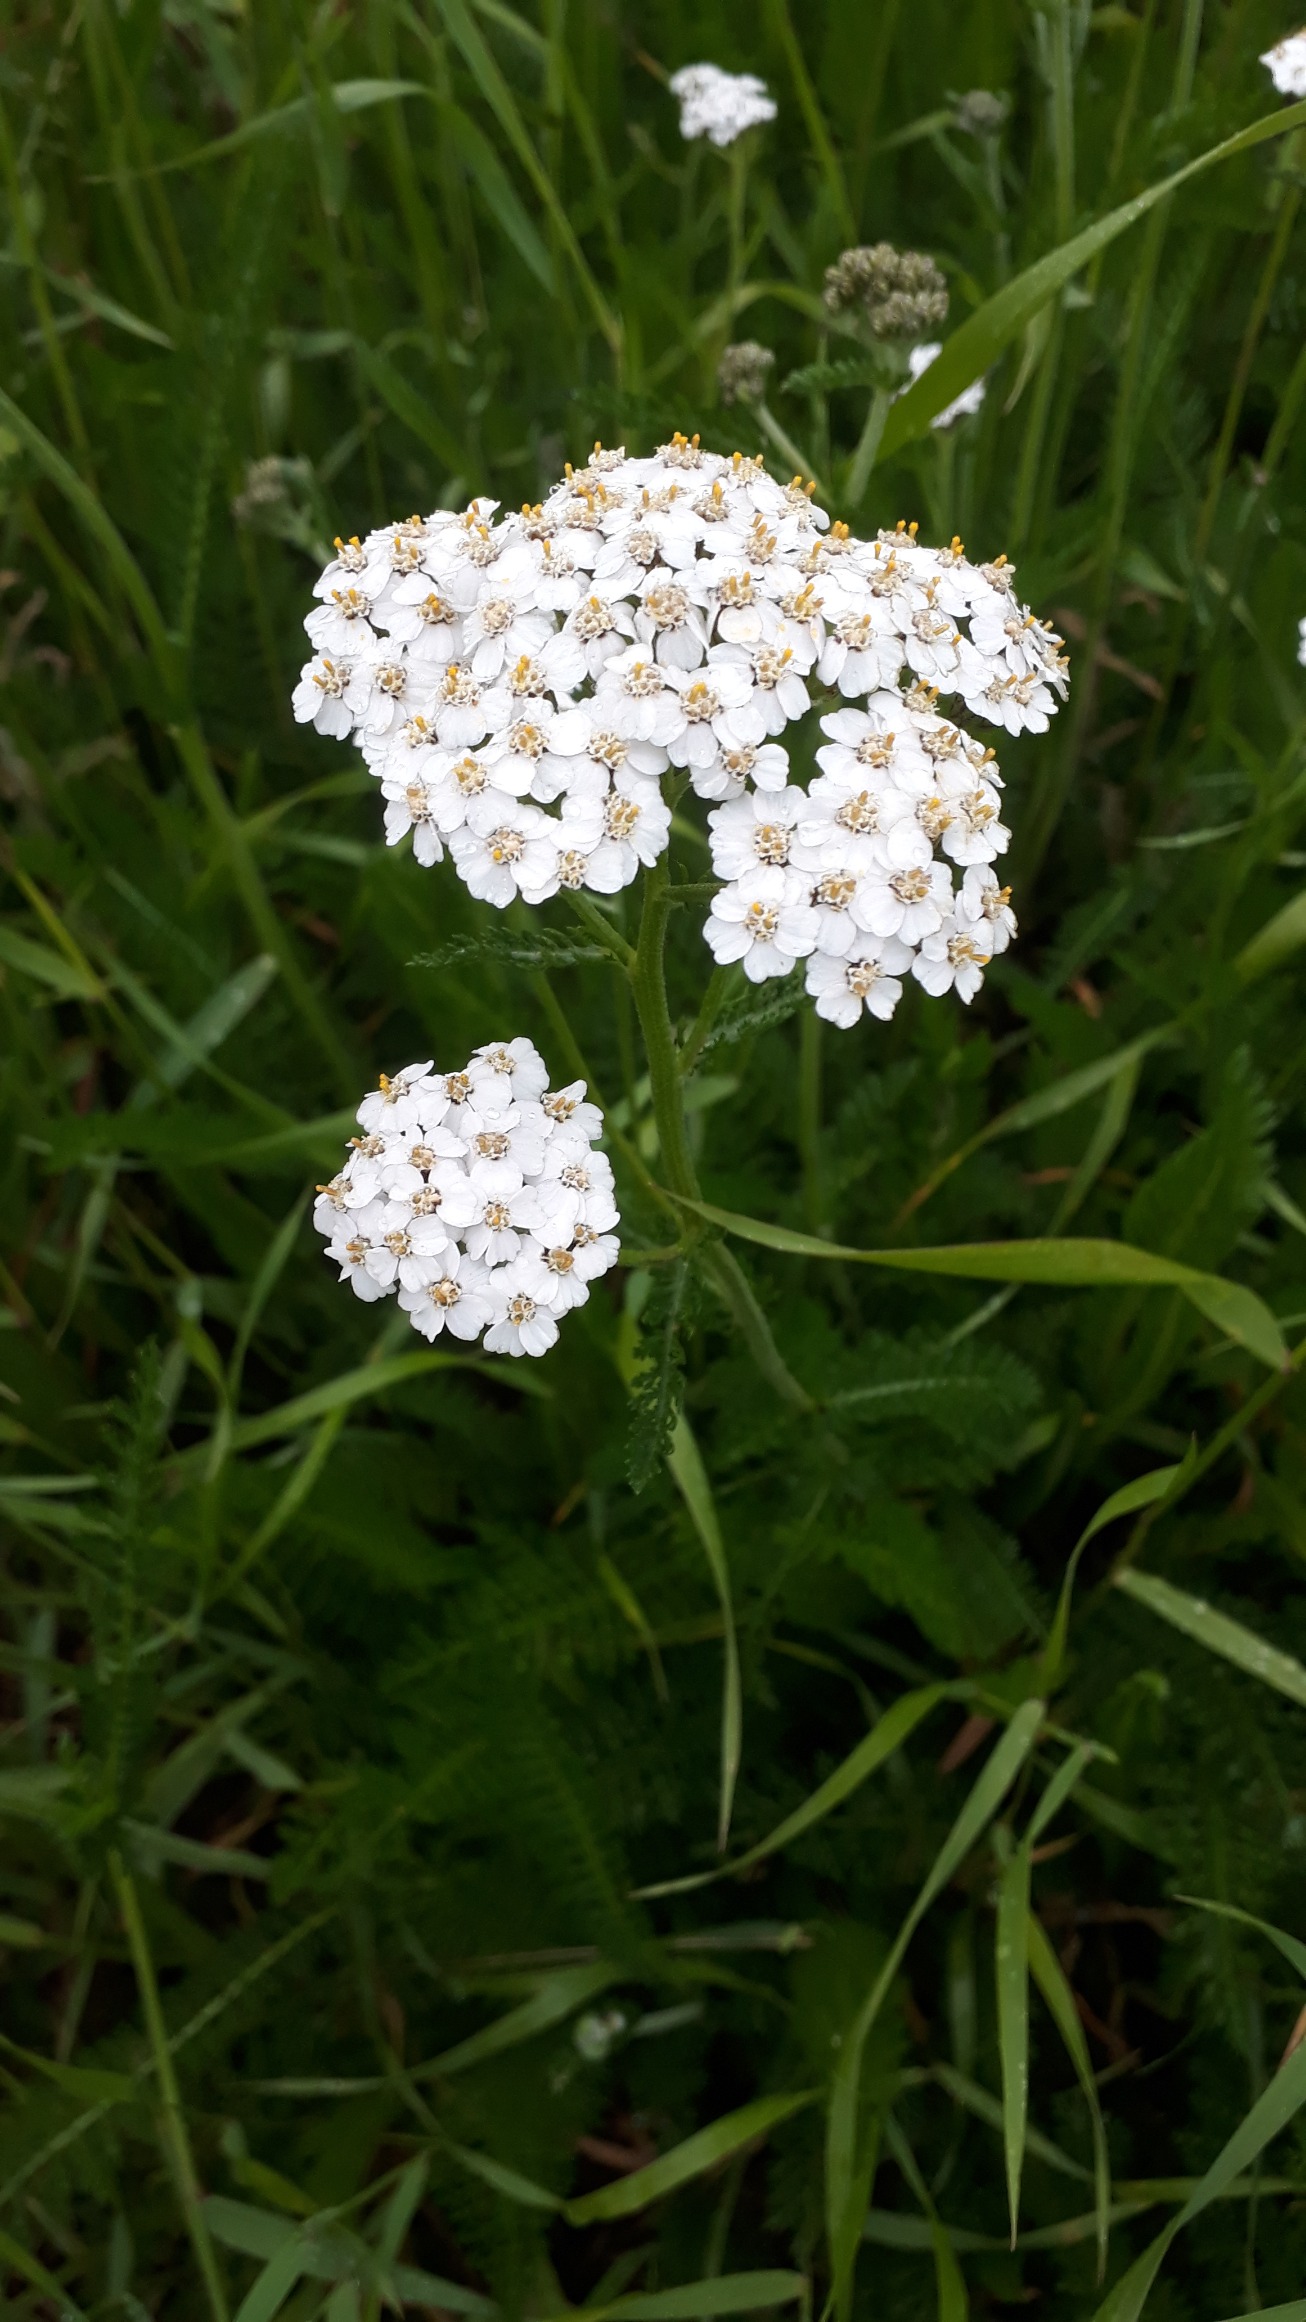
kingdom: Plantae
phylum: Tracheophyta
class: Magnoliopsida
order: Asterales
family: Asteraceae
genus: Achillea
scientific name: Achillea millefolium
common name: Almindelig røllike
